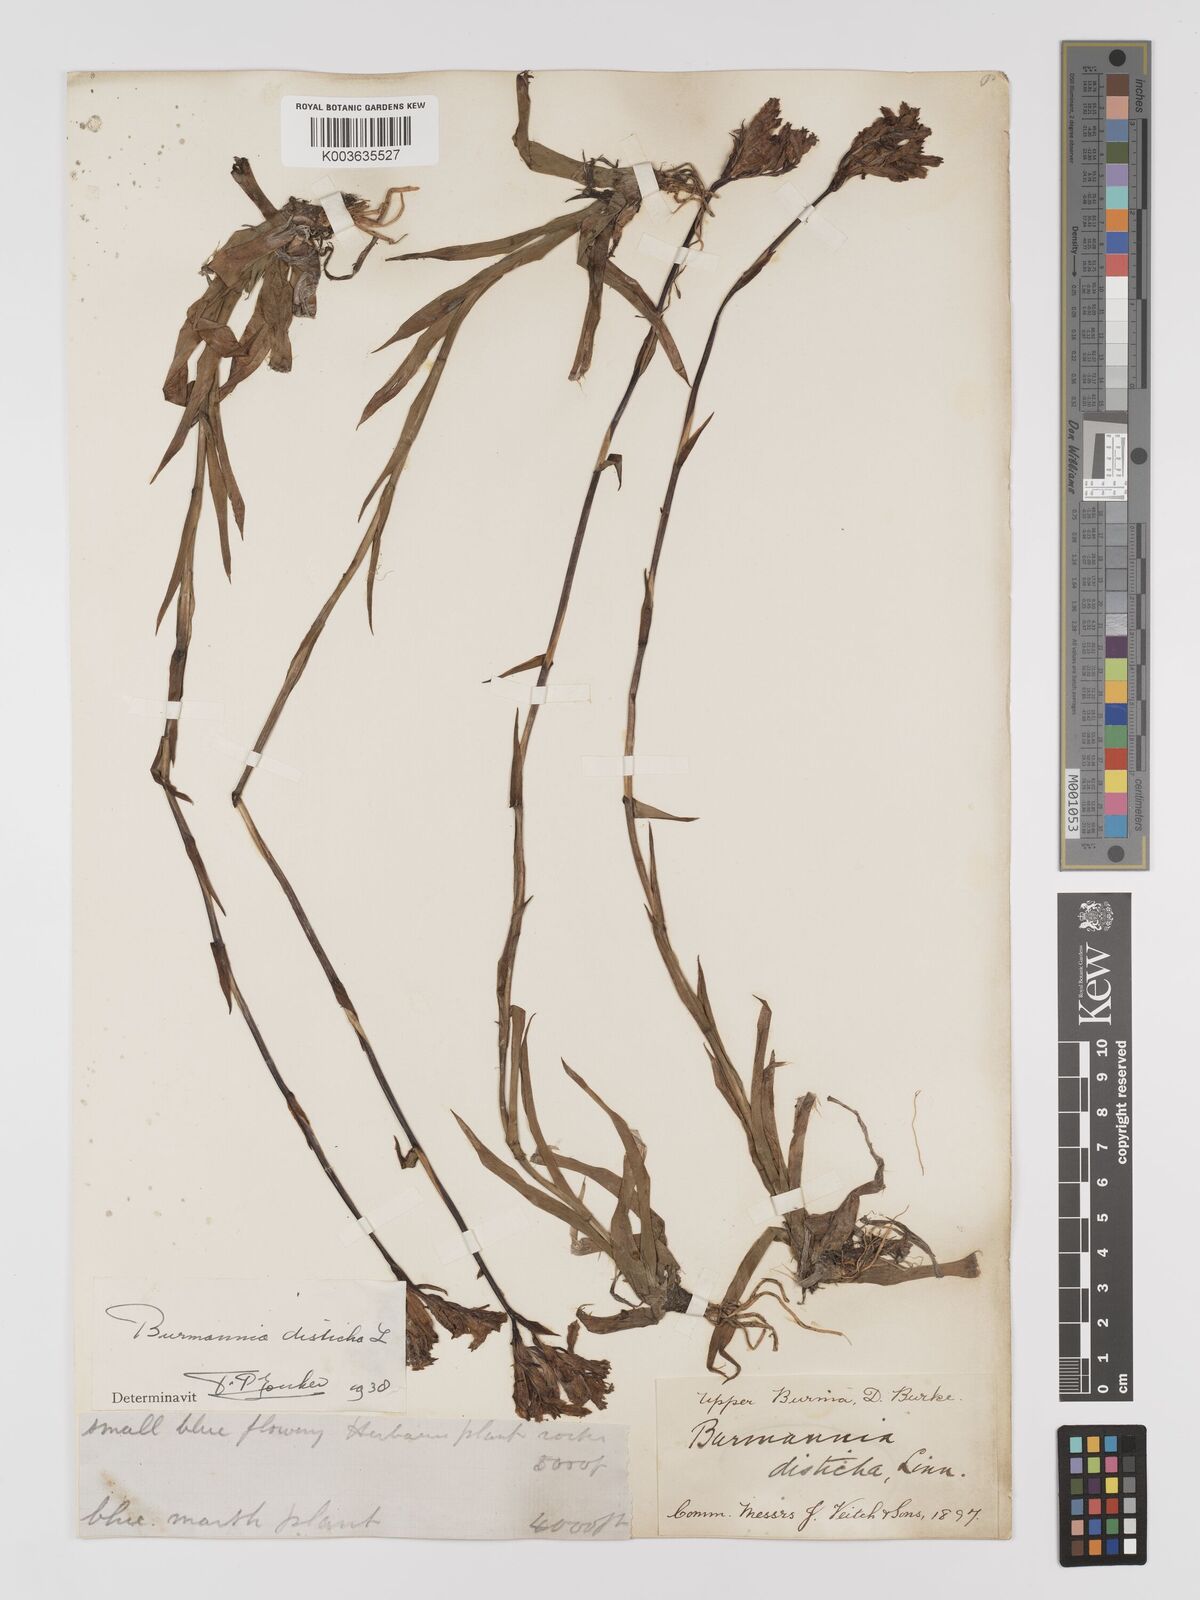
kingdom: Plantae
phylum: Tracheophyta
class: Liliopsida
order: Dioscoreales
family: Burmanniaceae
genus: Burmannia
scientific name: Burmannia disticha
